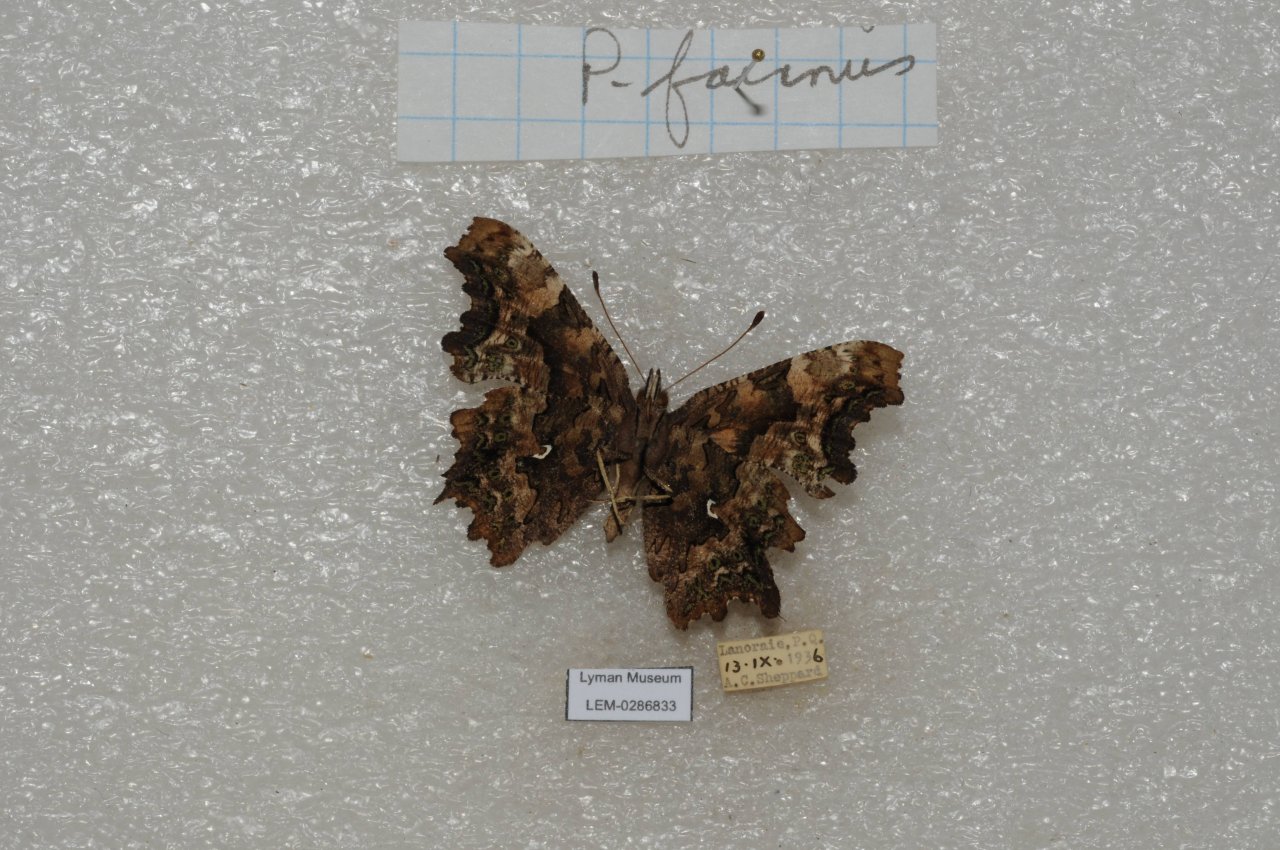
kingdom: Animalia
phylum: Arthropoda
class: Insecta
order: Lepidoptera
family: Nymphalidae
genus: Polygonia
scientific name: Polygonia faunus
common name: Green Comma
